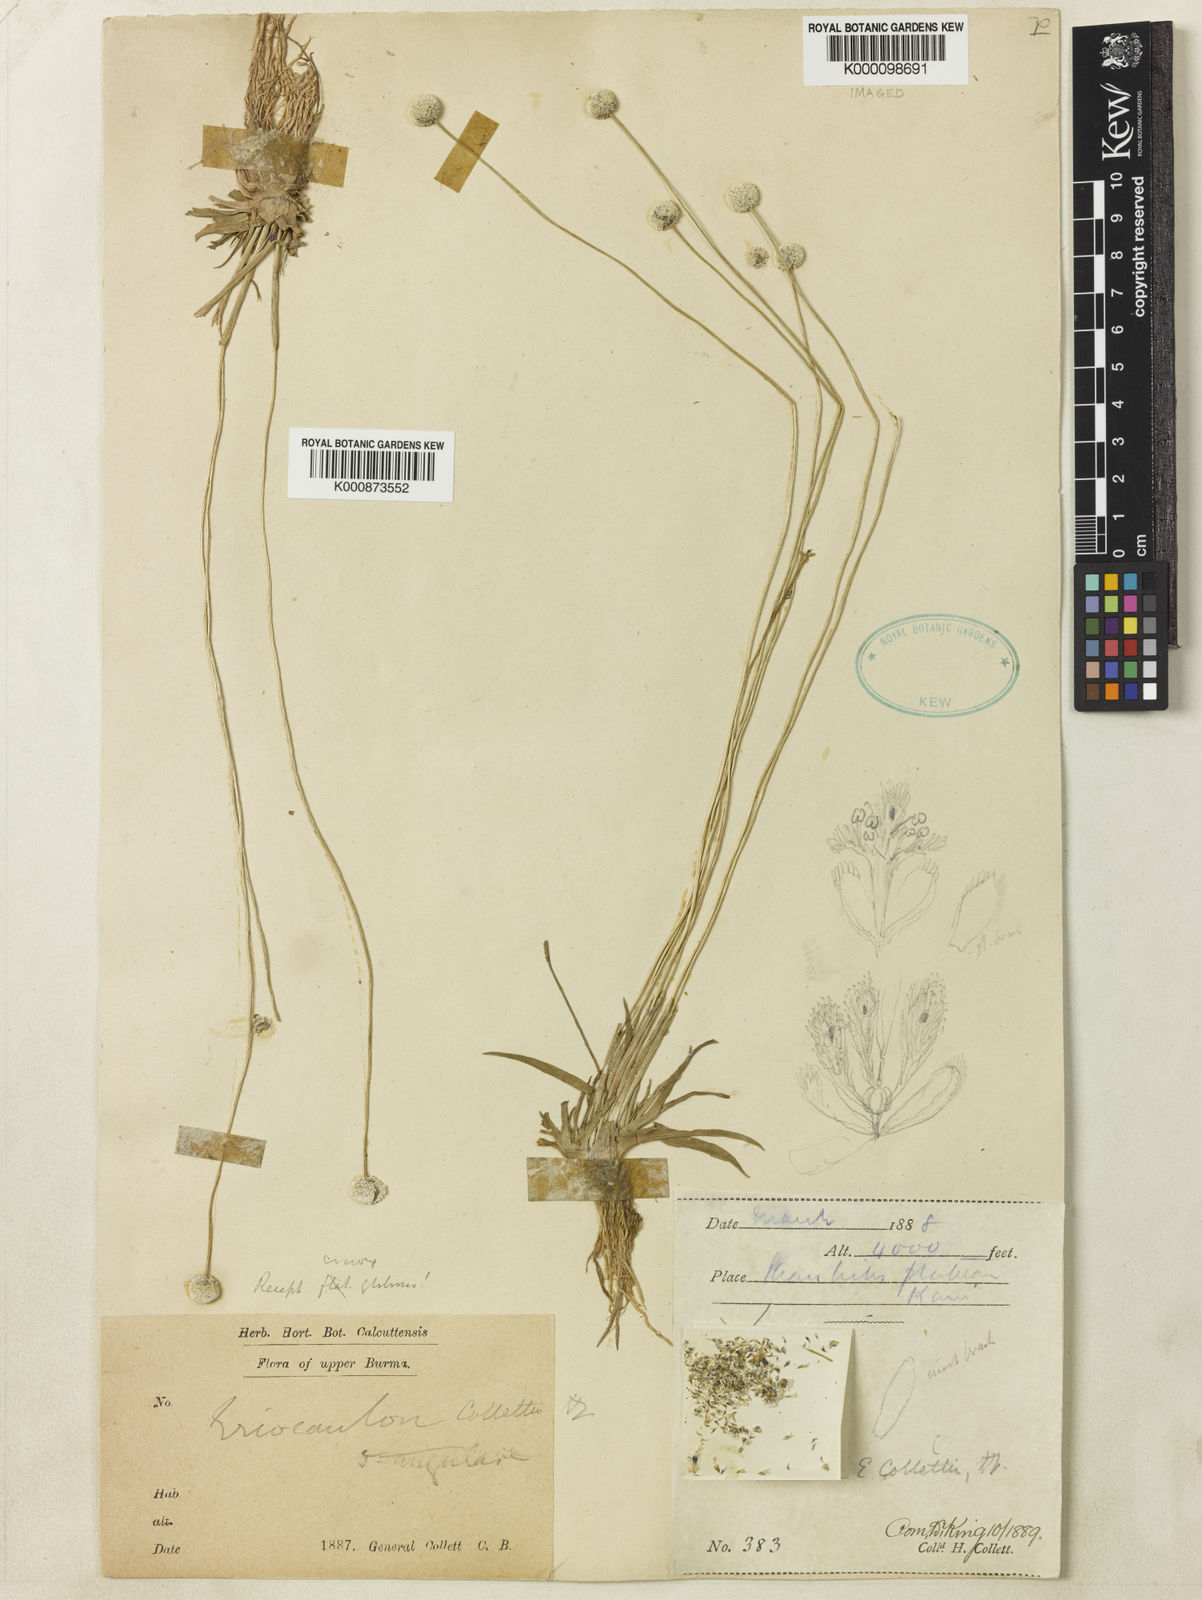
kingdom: Plantae
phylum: Tracheophyta
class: Liliopsida
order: Poales
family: Eriocaulaceae
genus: Eriocaulon
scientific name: Eriocaulon collettii
